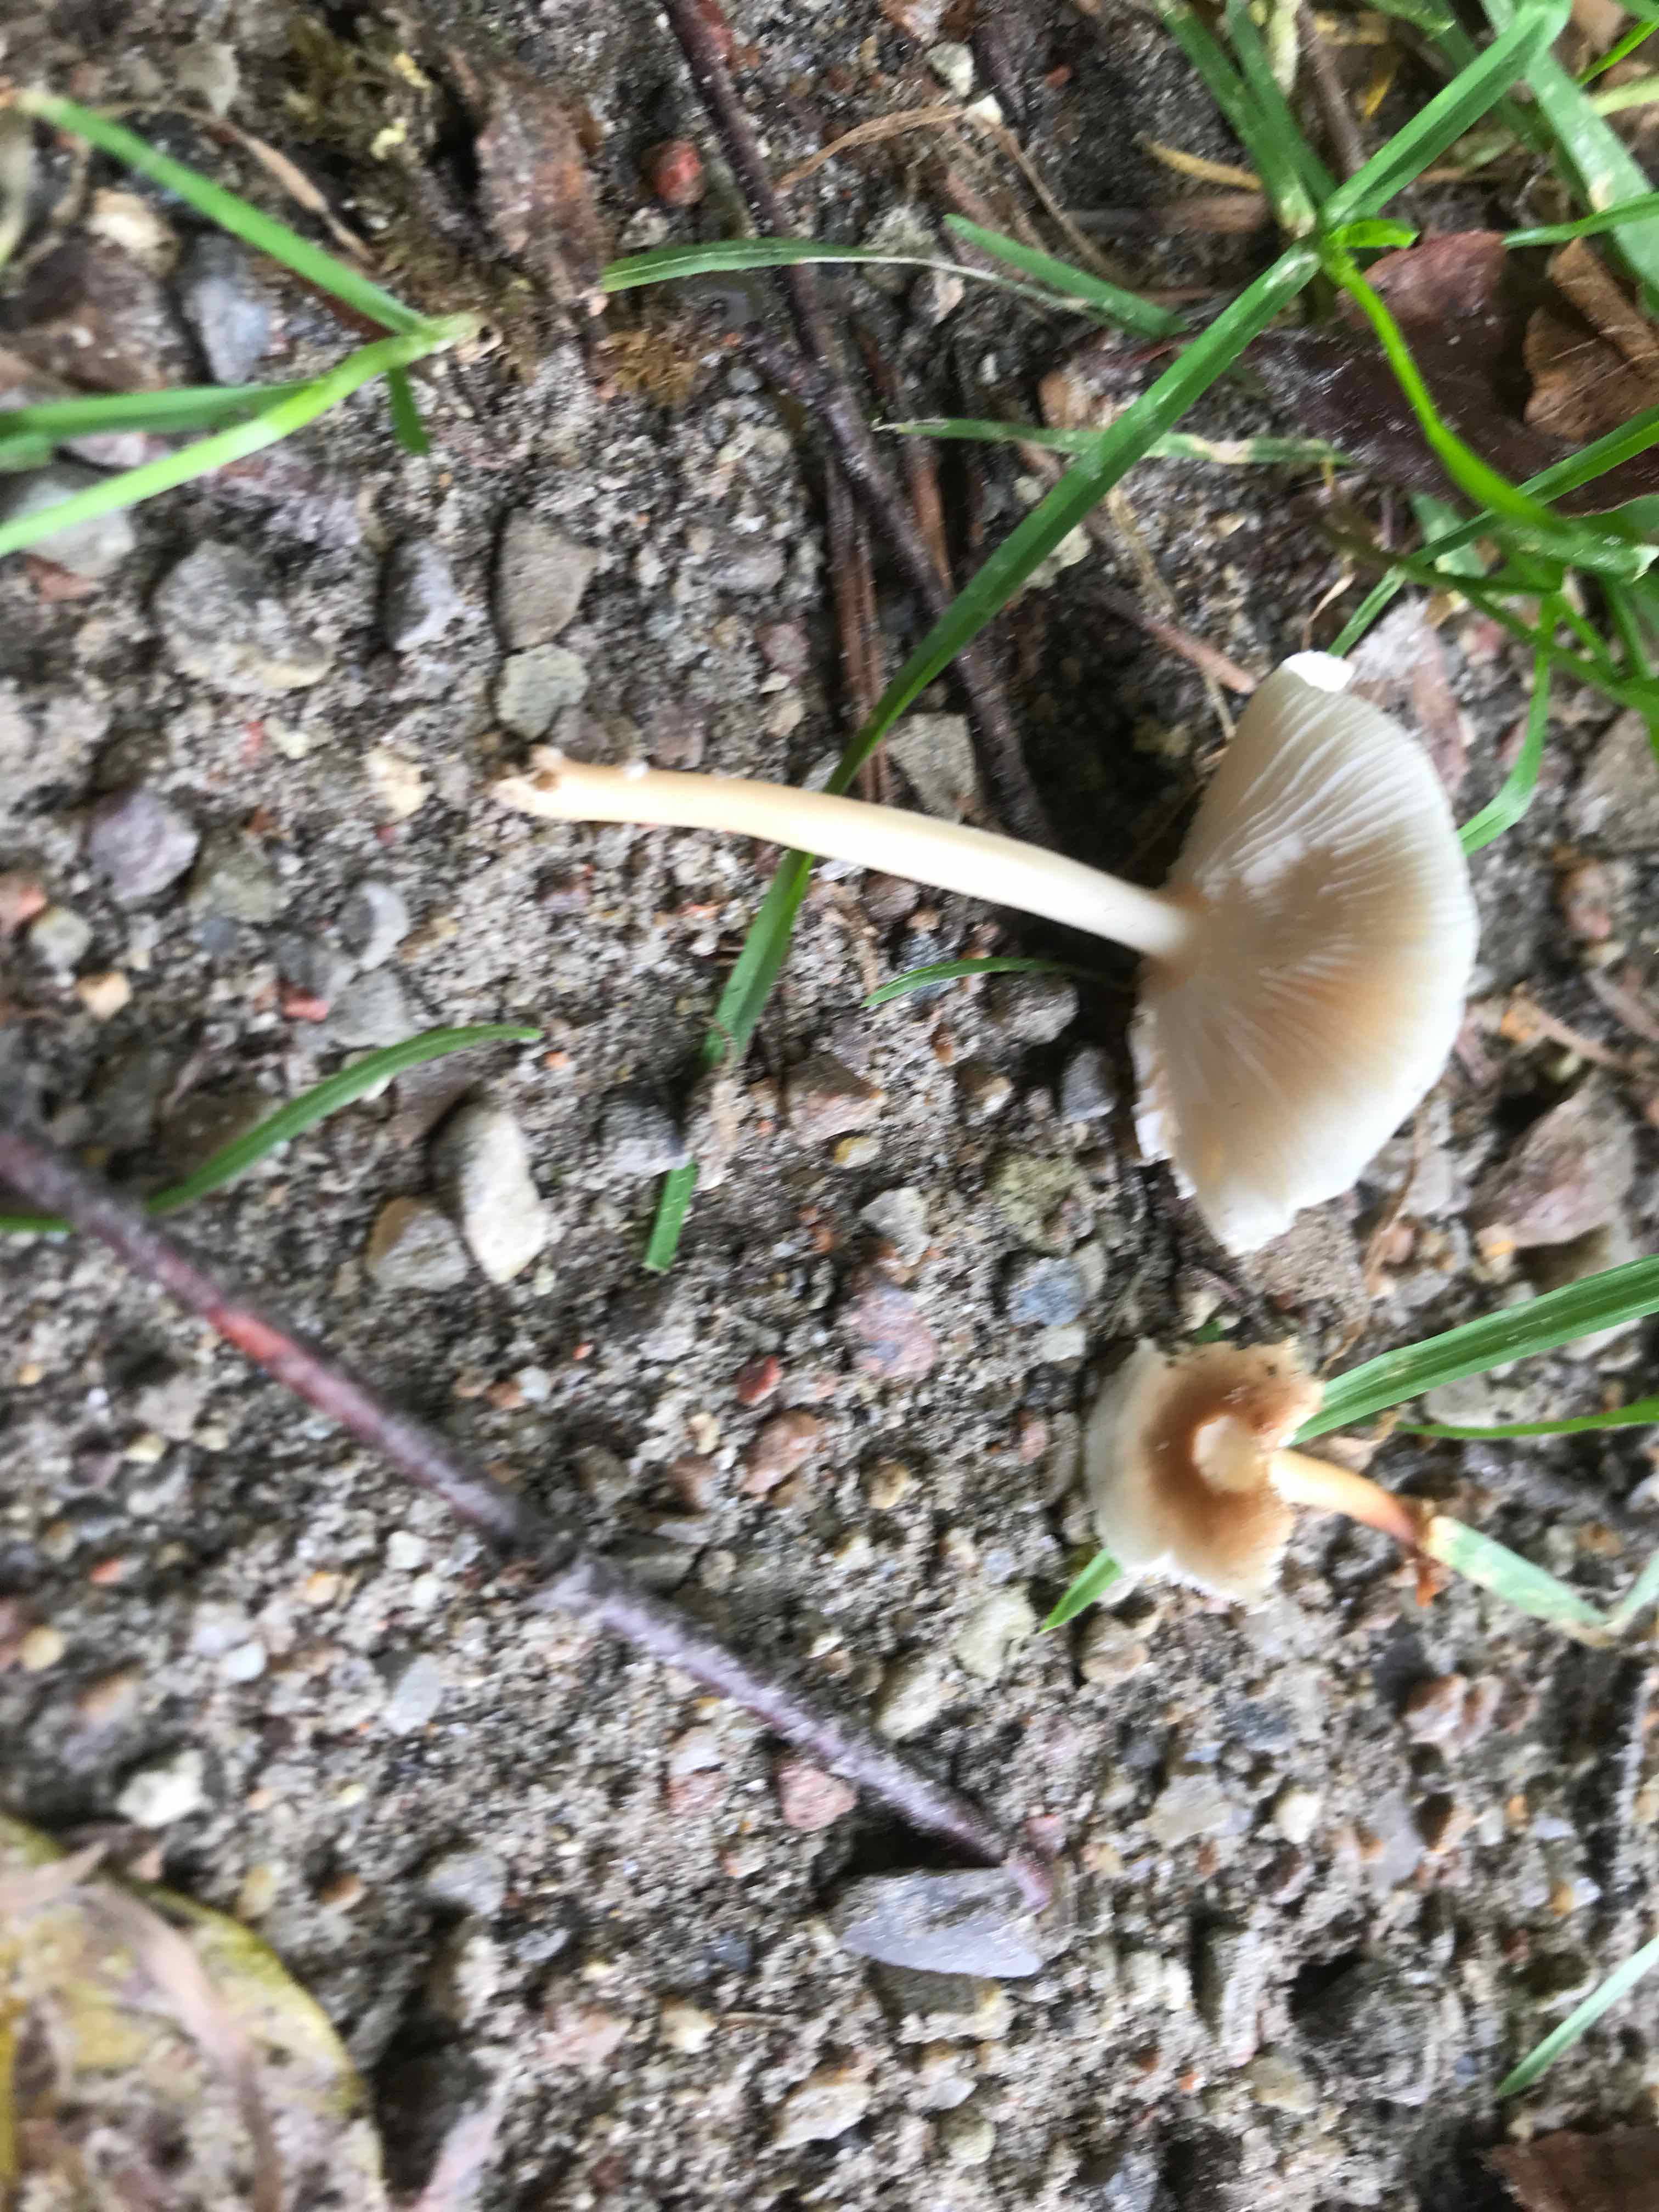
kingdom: Fungi
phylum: Basidiomycota
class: Agaricomycetes
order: Agaricales
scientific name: Agaricales
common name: champignonordenen
